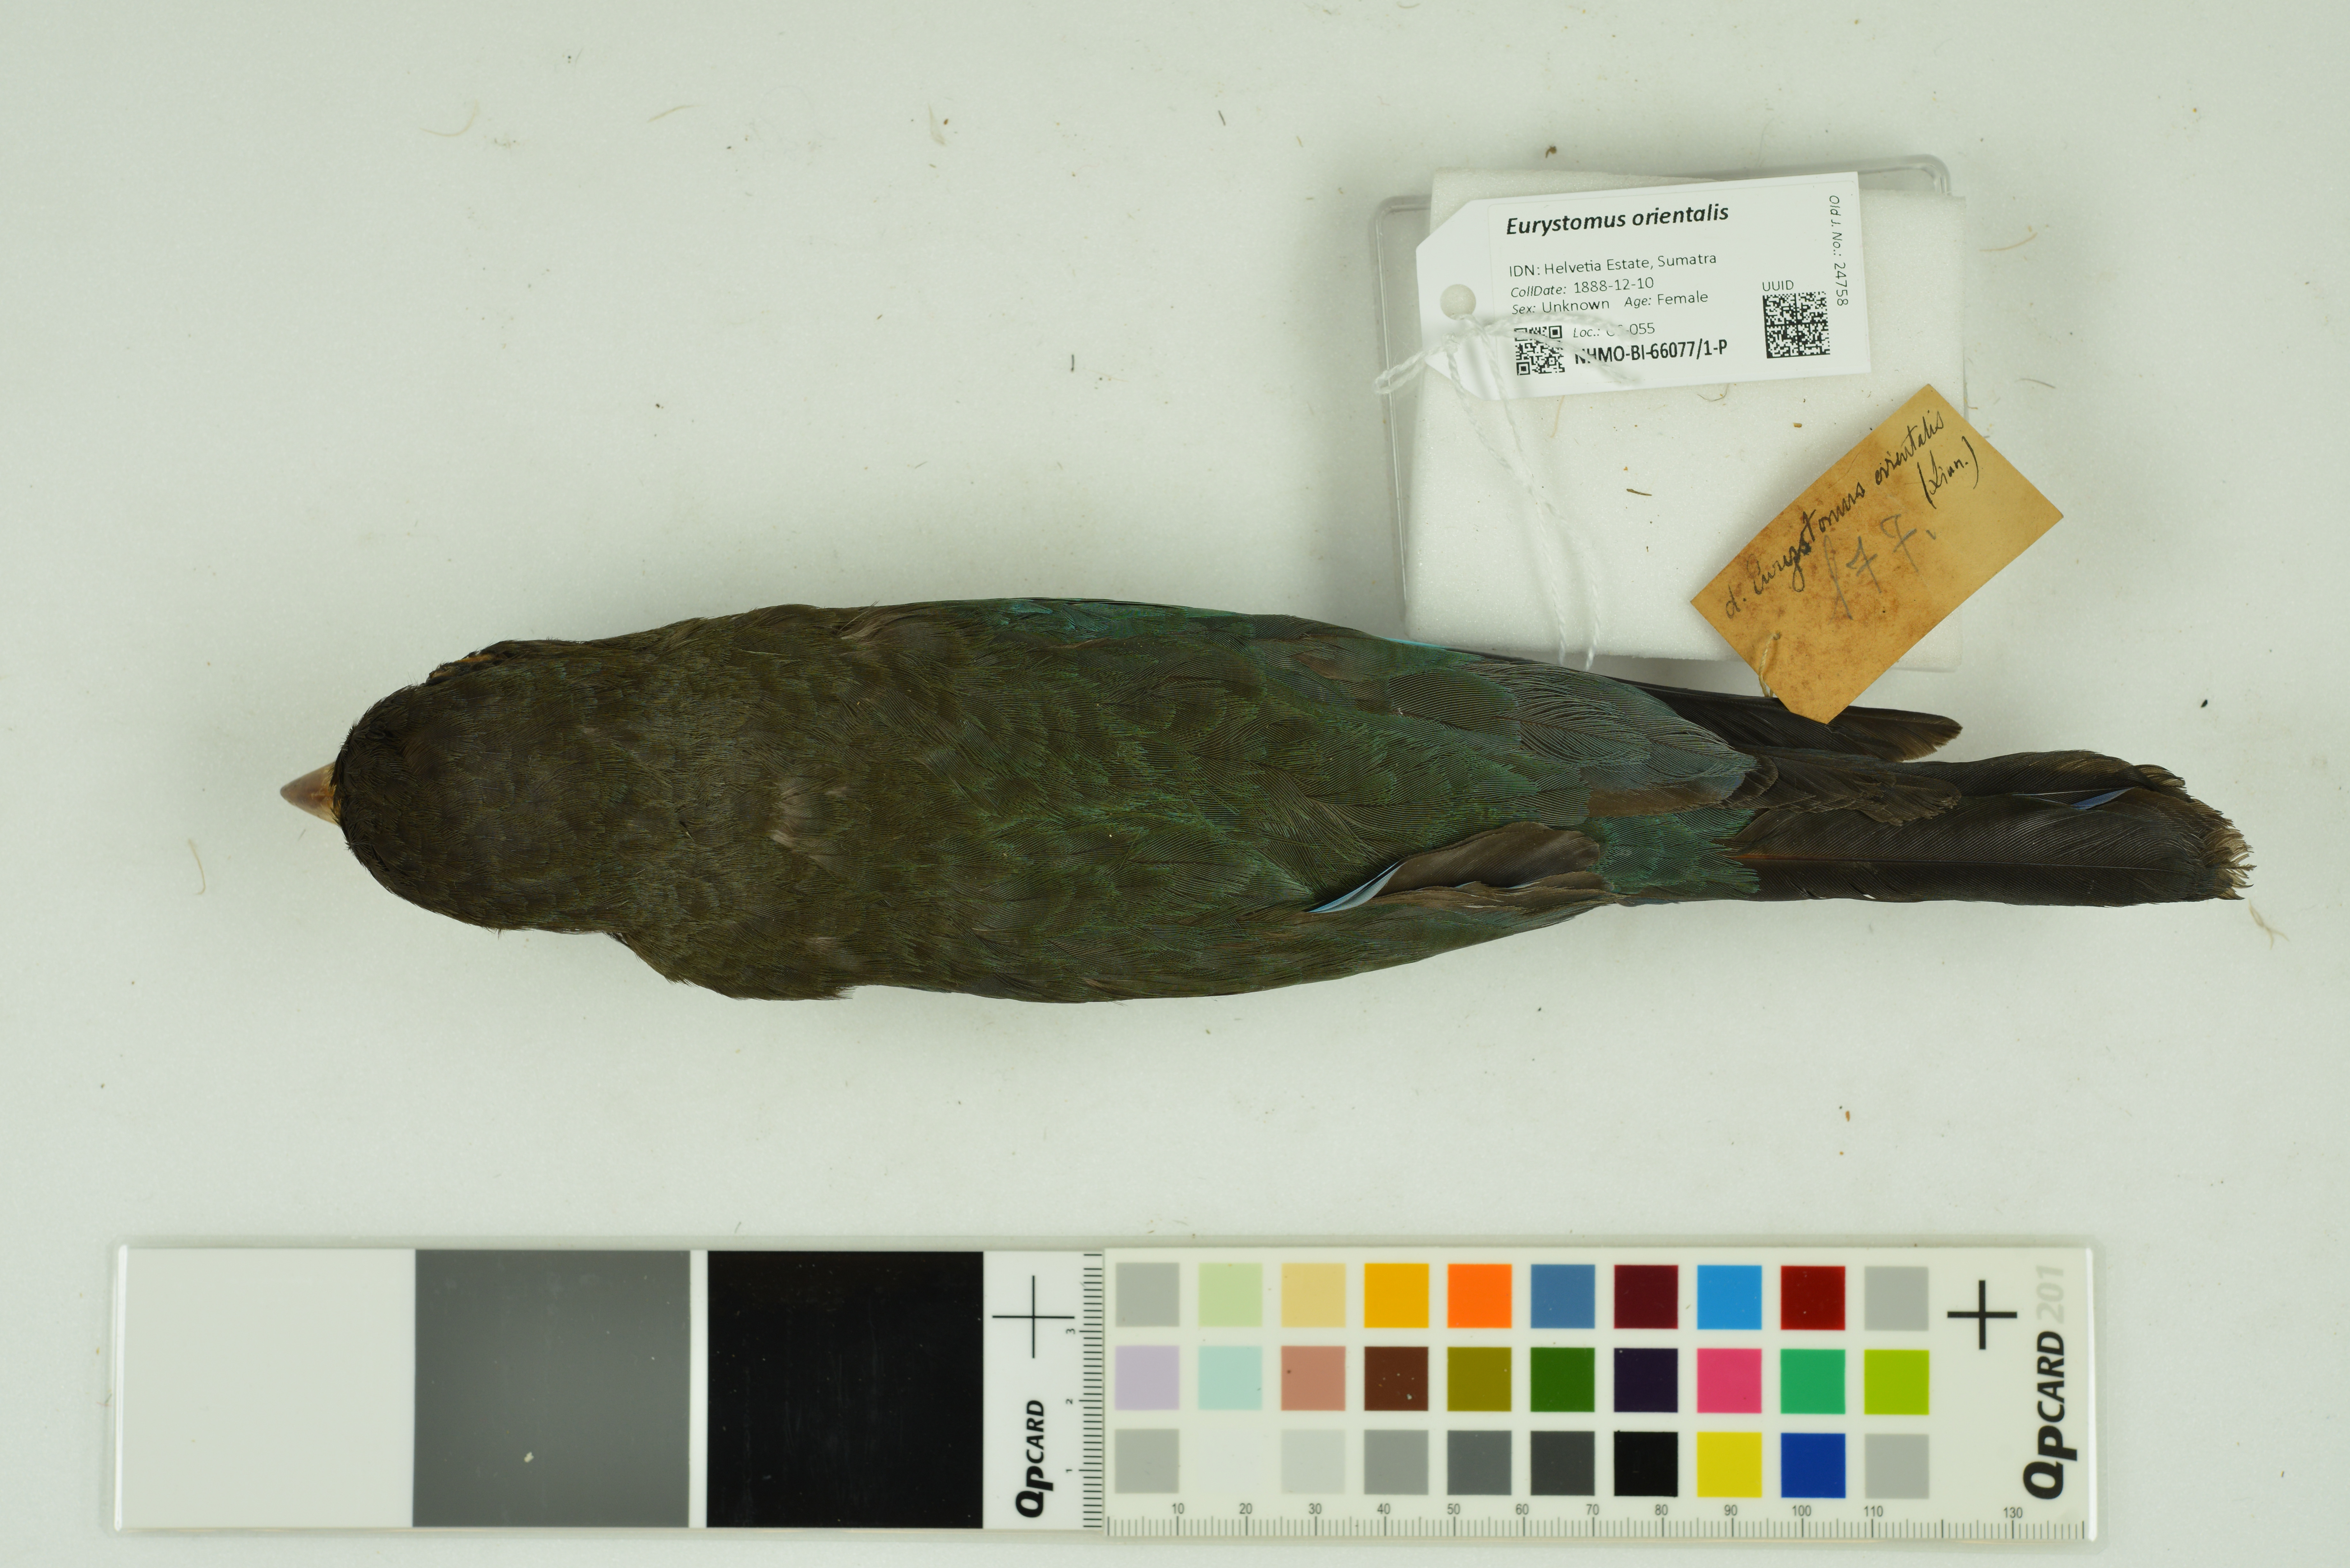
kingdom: Animalia
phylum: Chordata
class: Aves
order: Coraciiformes
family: Coraciidae
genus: Eurystomus
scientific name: Eurystomus orientalis
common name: Oriental dollarbird
